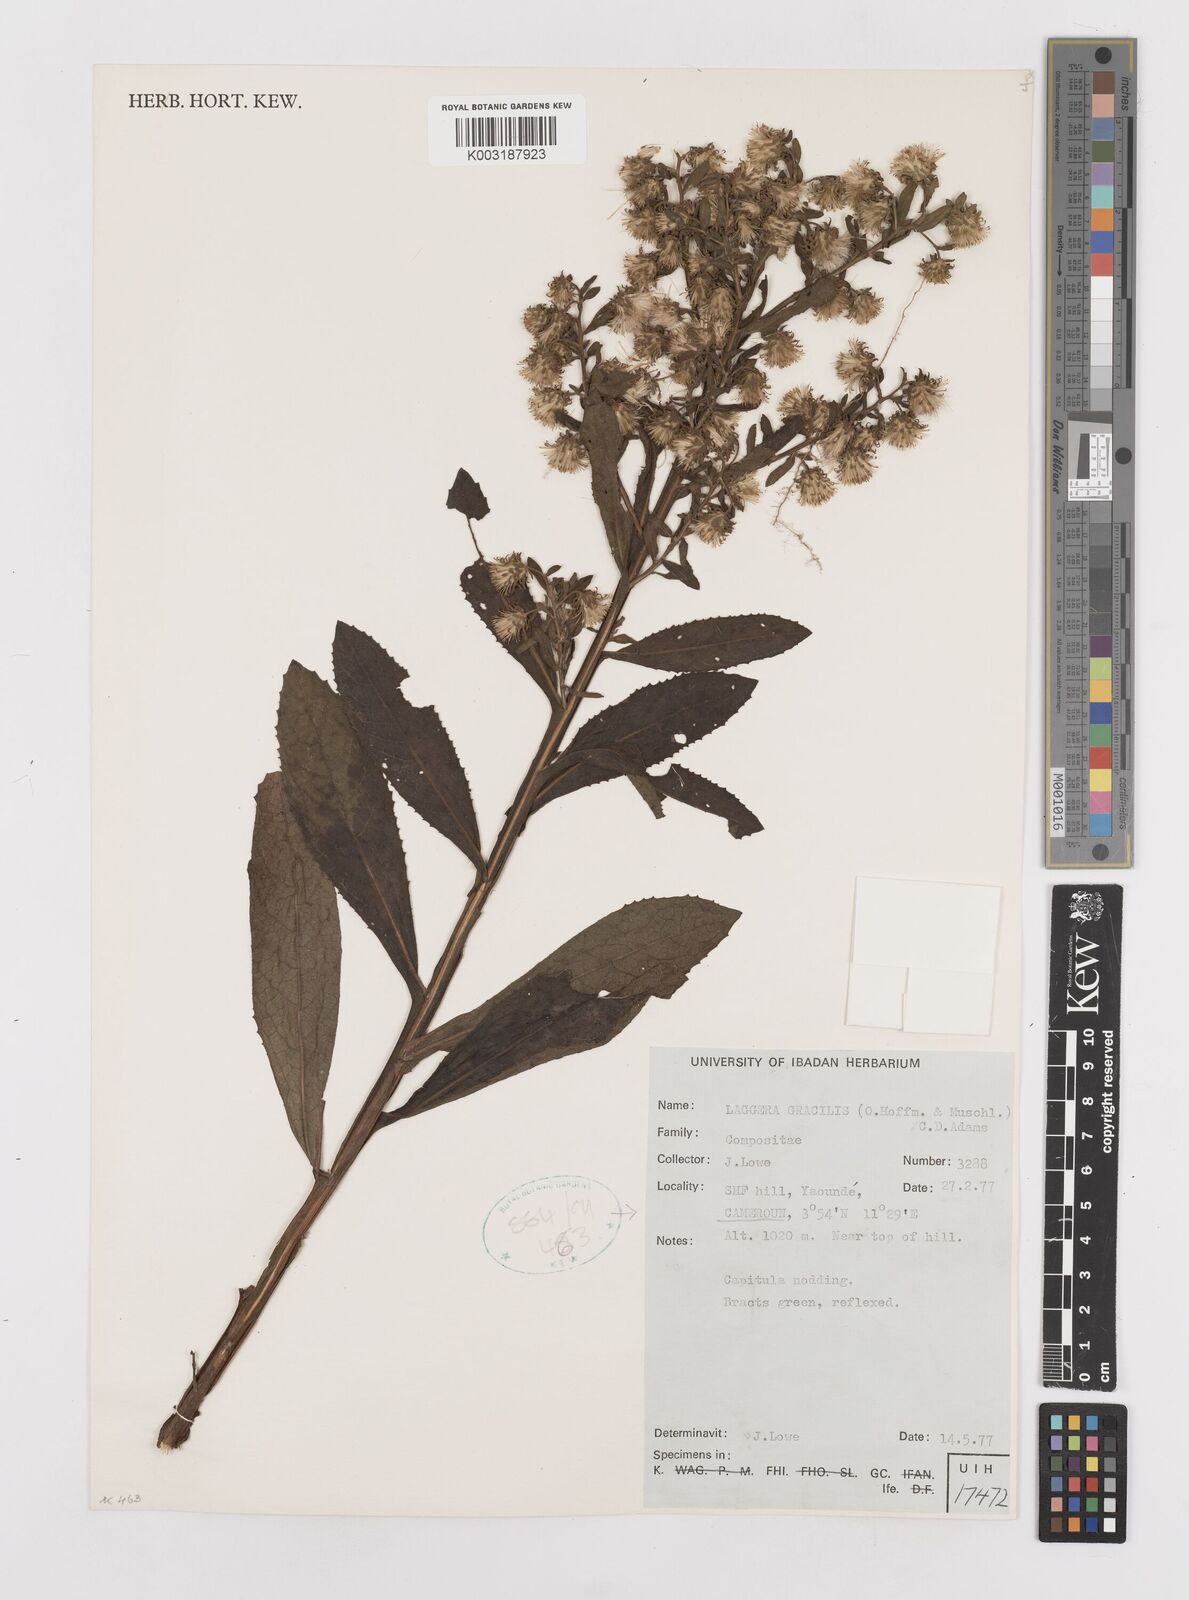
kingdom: Plantae
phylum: Tracheophyta
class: Magnoliopsida
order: Asterales
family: Asteraceae
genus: Laggera
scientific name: Laggera gracilis
